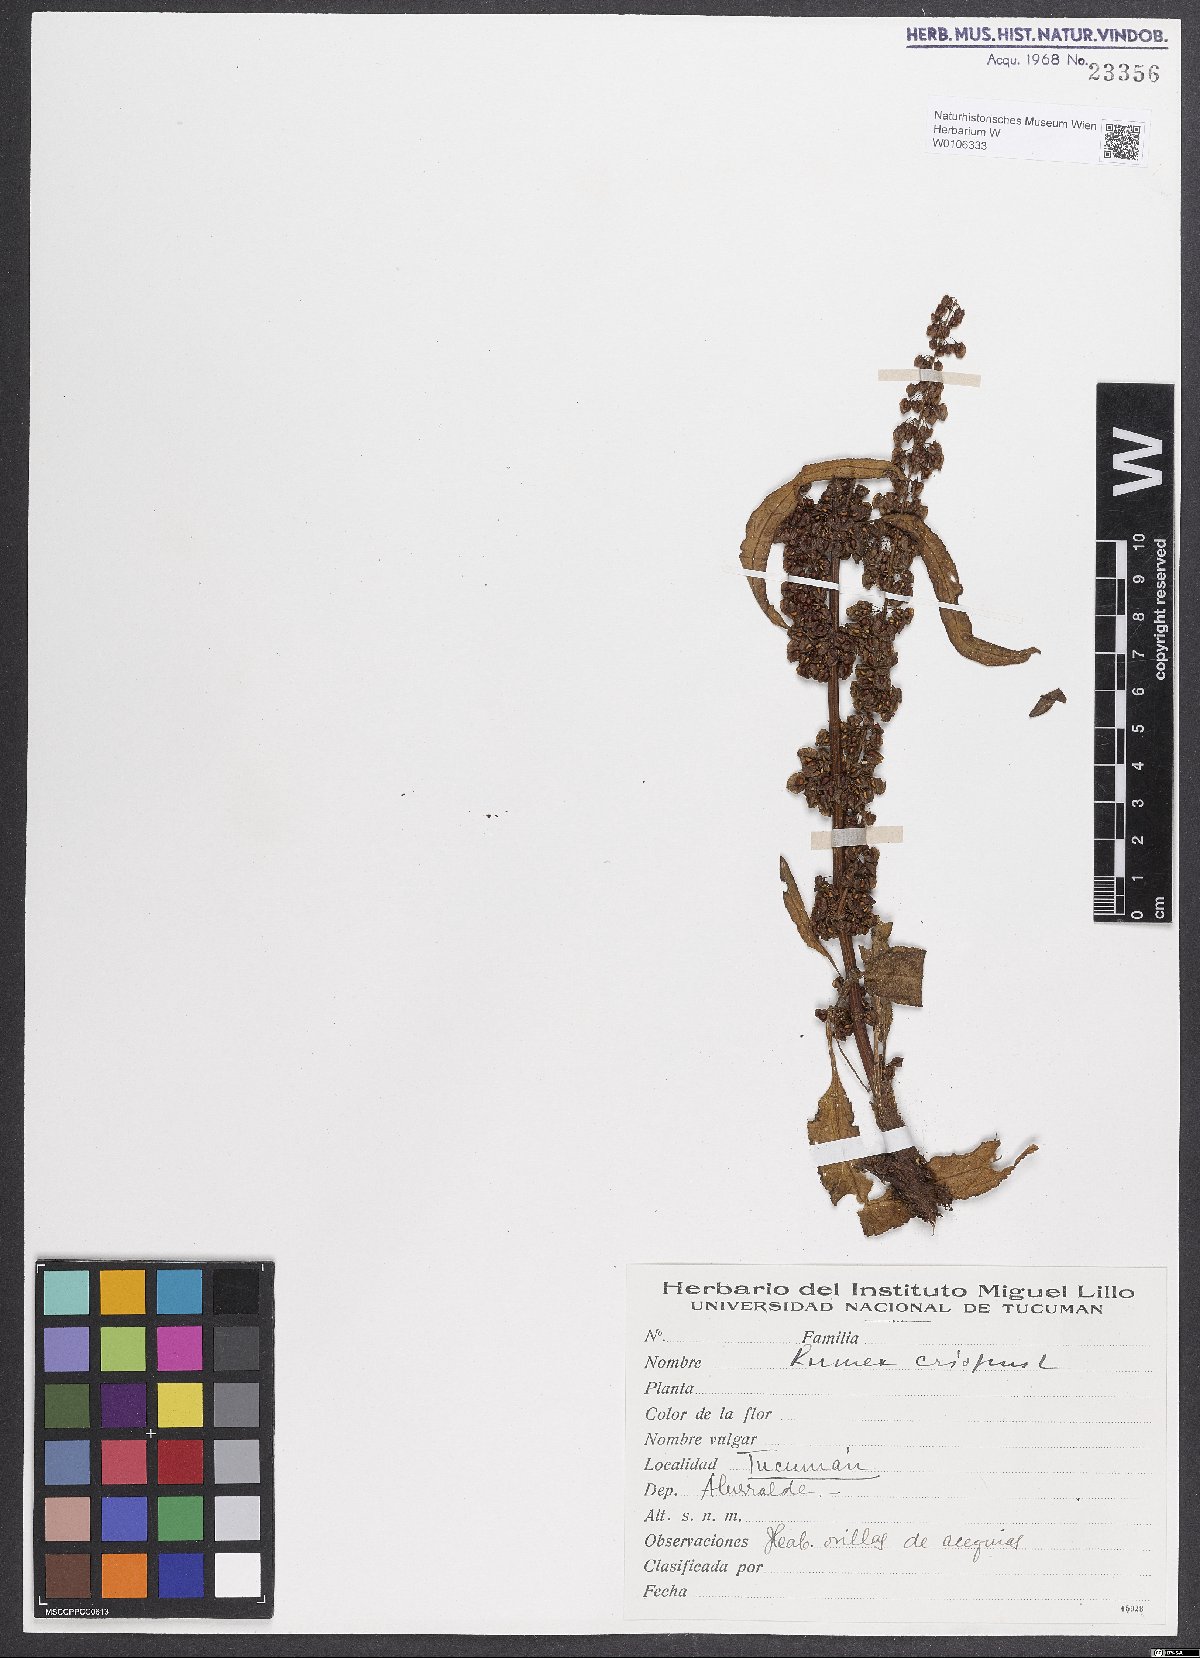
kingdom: Plantae
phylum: Tracheophyta
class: Magnoliopsida
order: Caryophyllales
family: Polygonaceae
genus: Rumex
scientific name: Rumex crispus
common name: Curled dock
